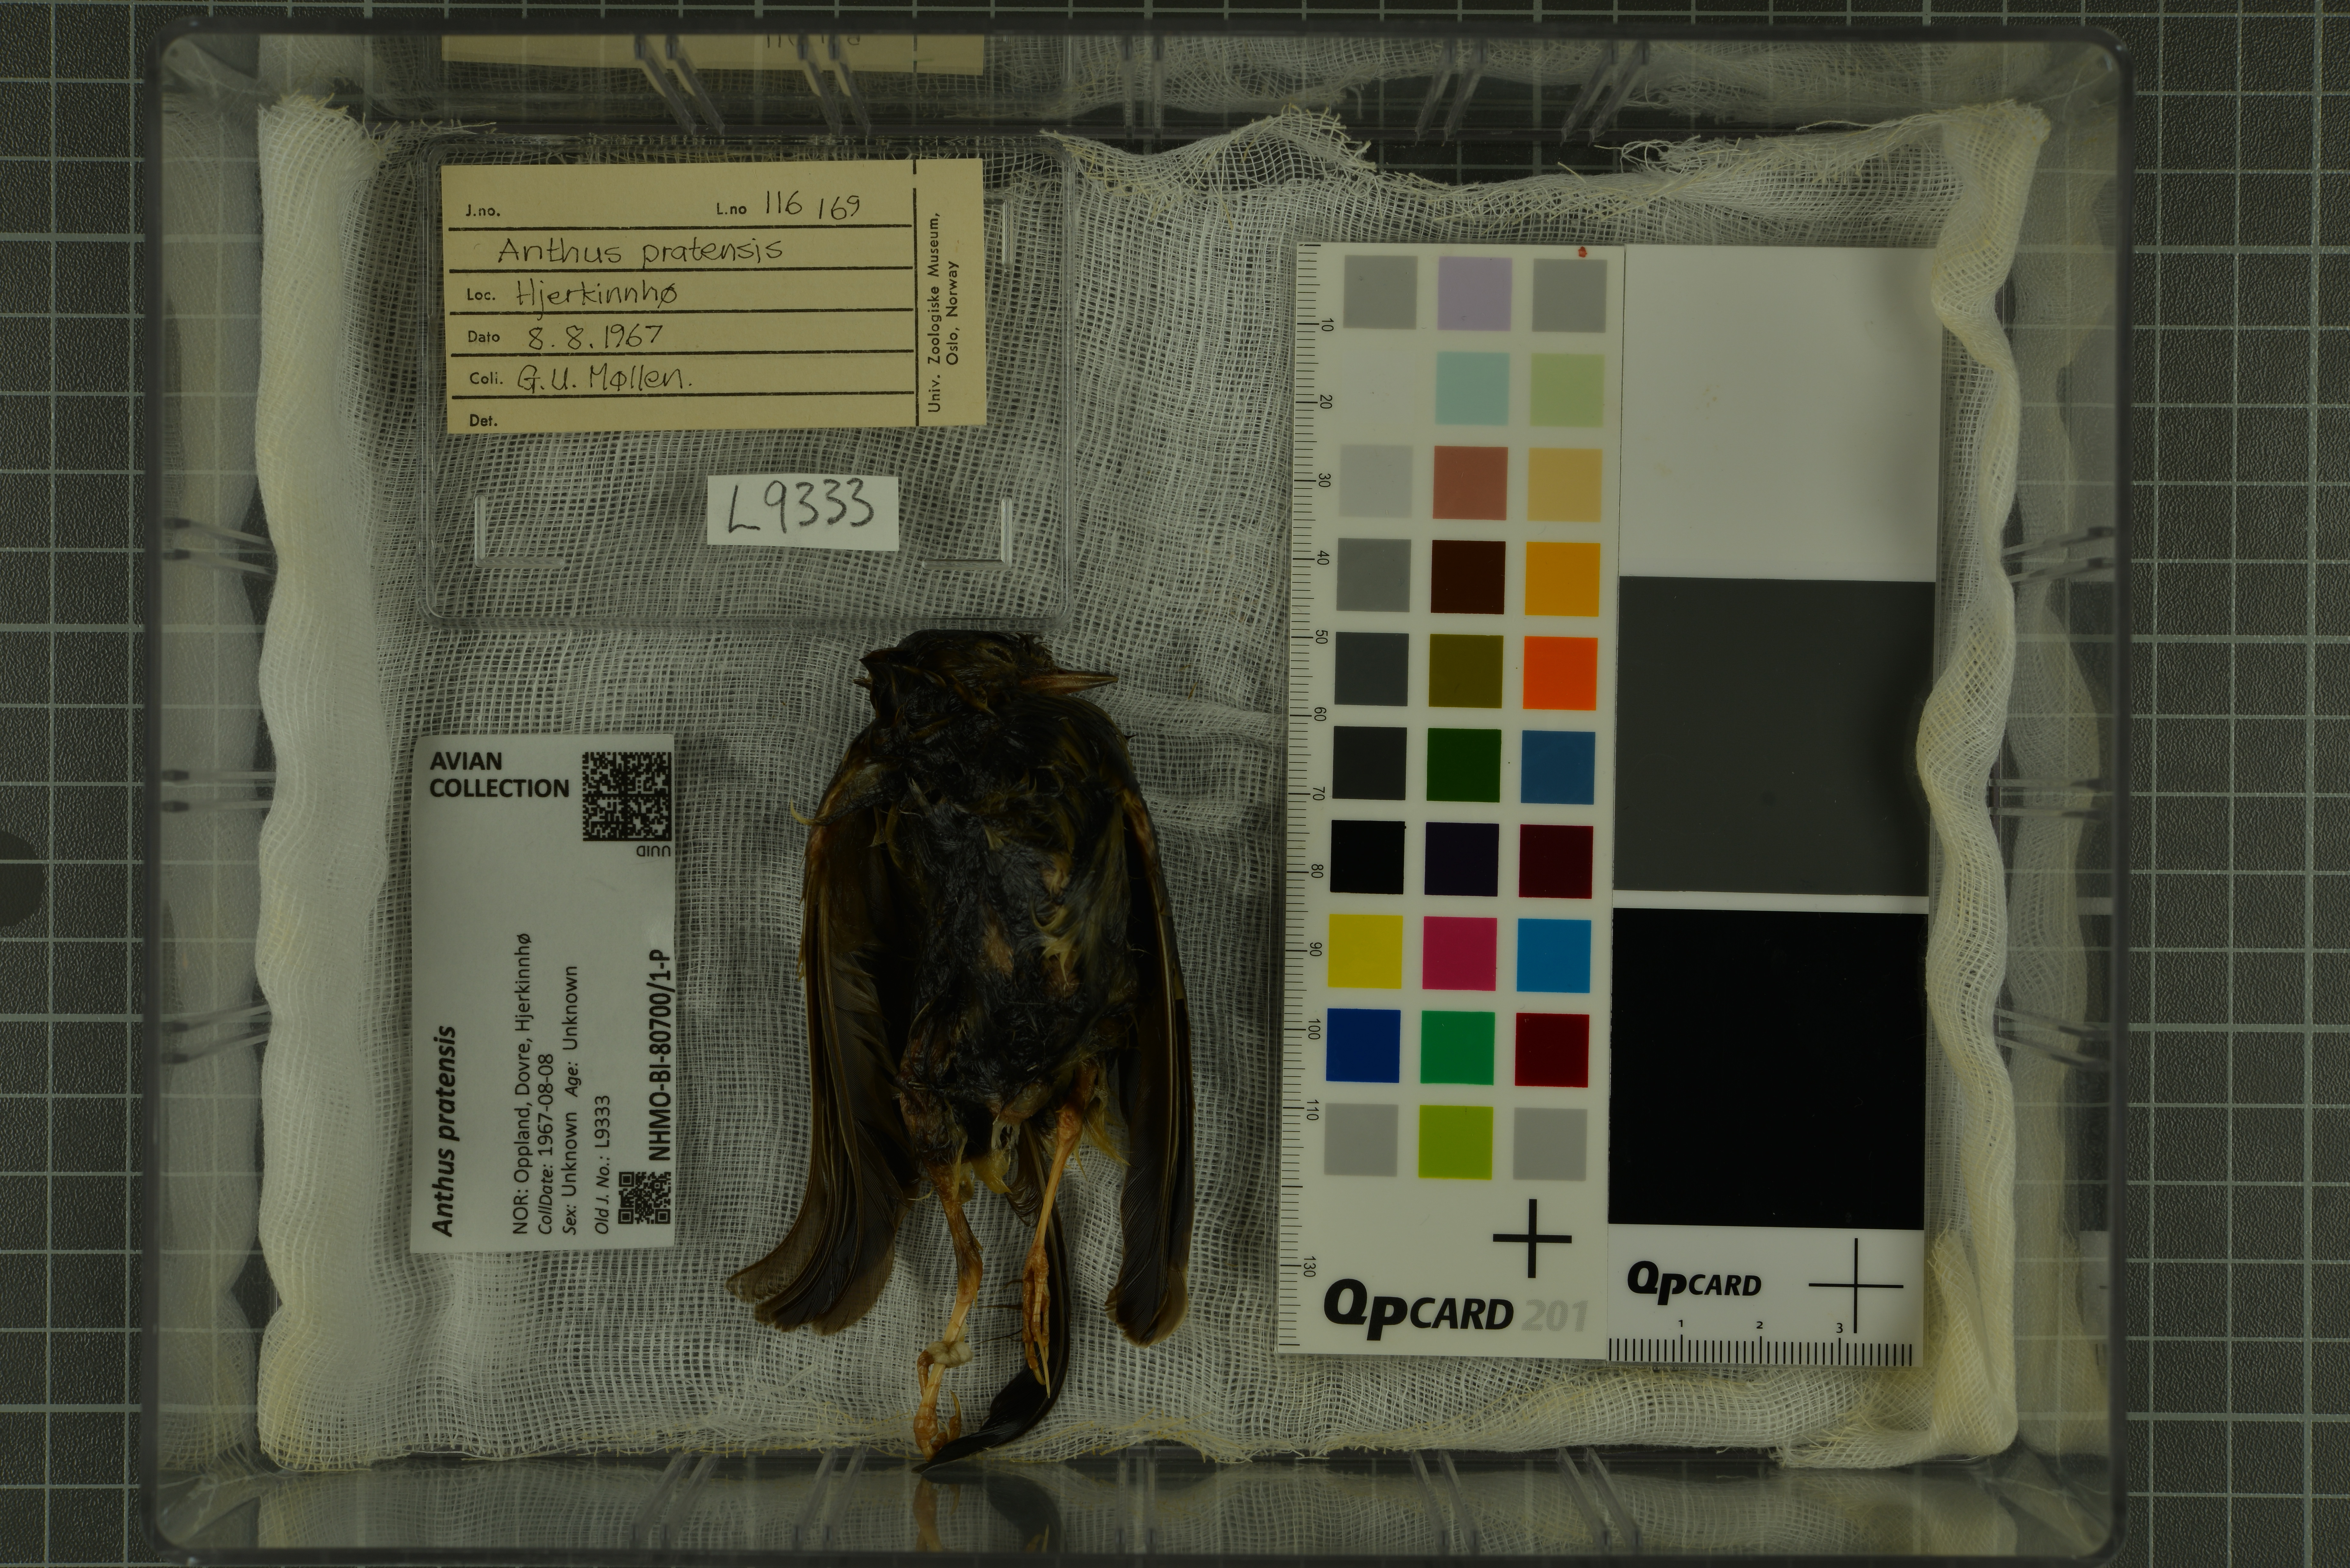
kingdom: Animalia
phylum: Chordata
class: Aves
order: Passeriformes
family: Motacillidae
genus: Anthus
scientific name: Anthus pratensis
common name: Meadow pipit
